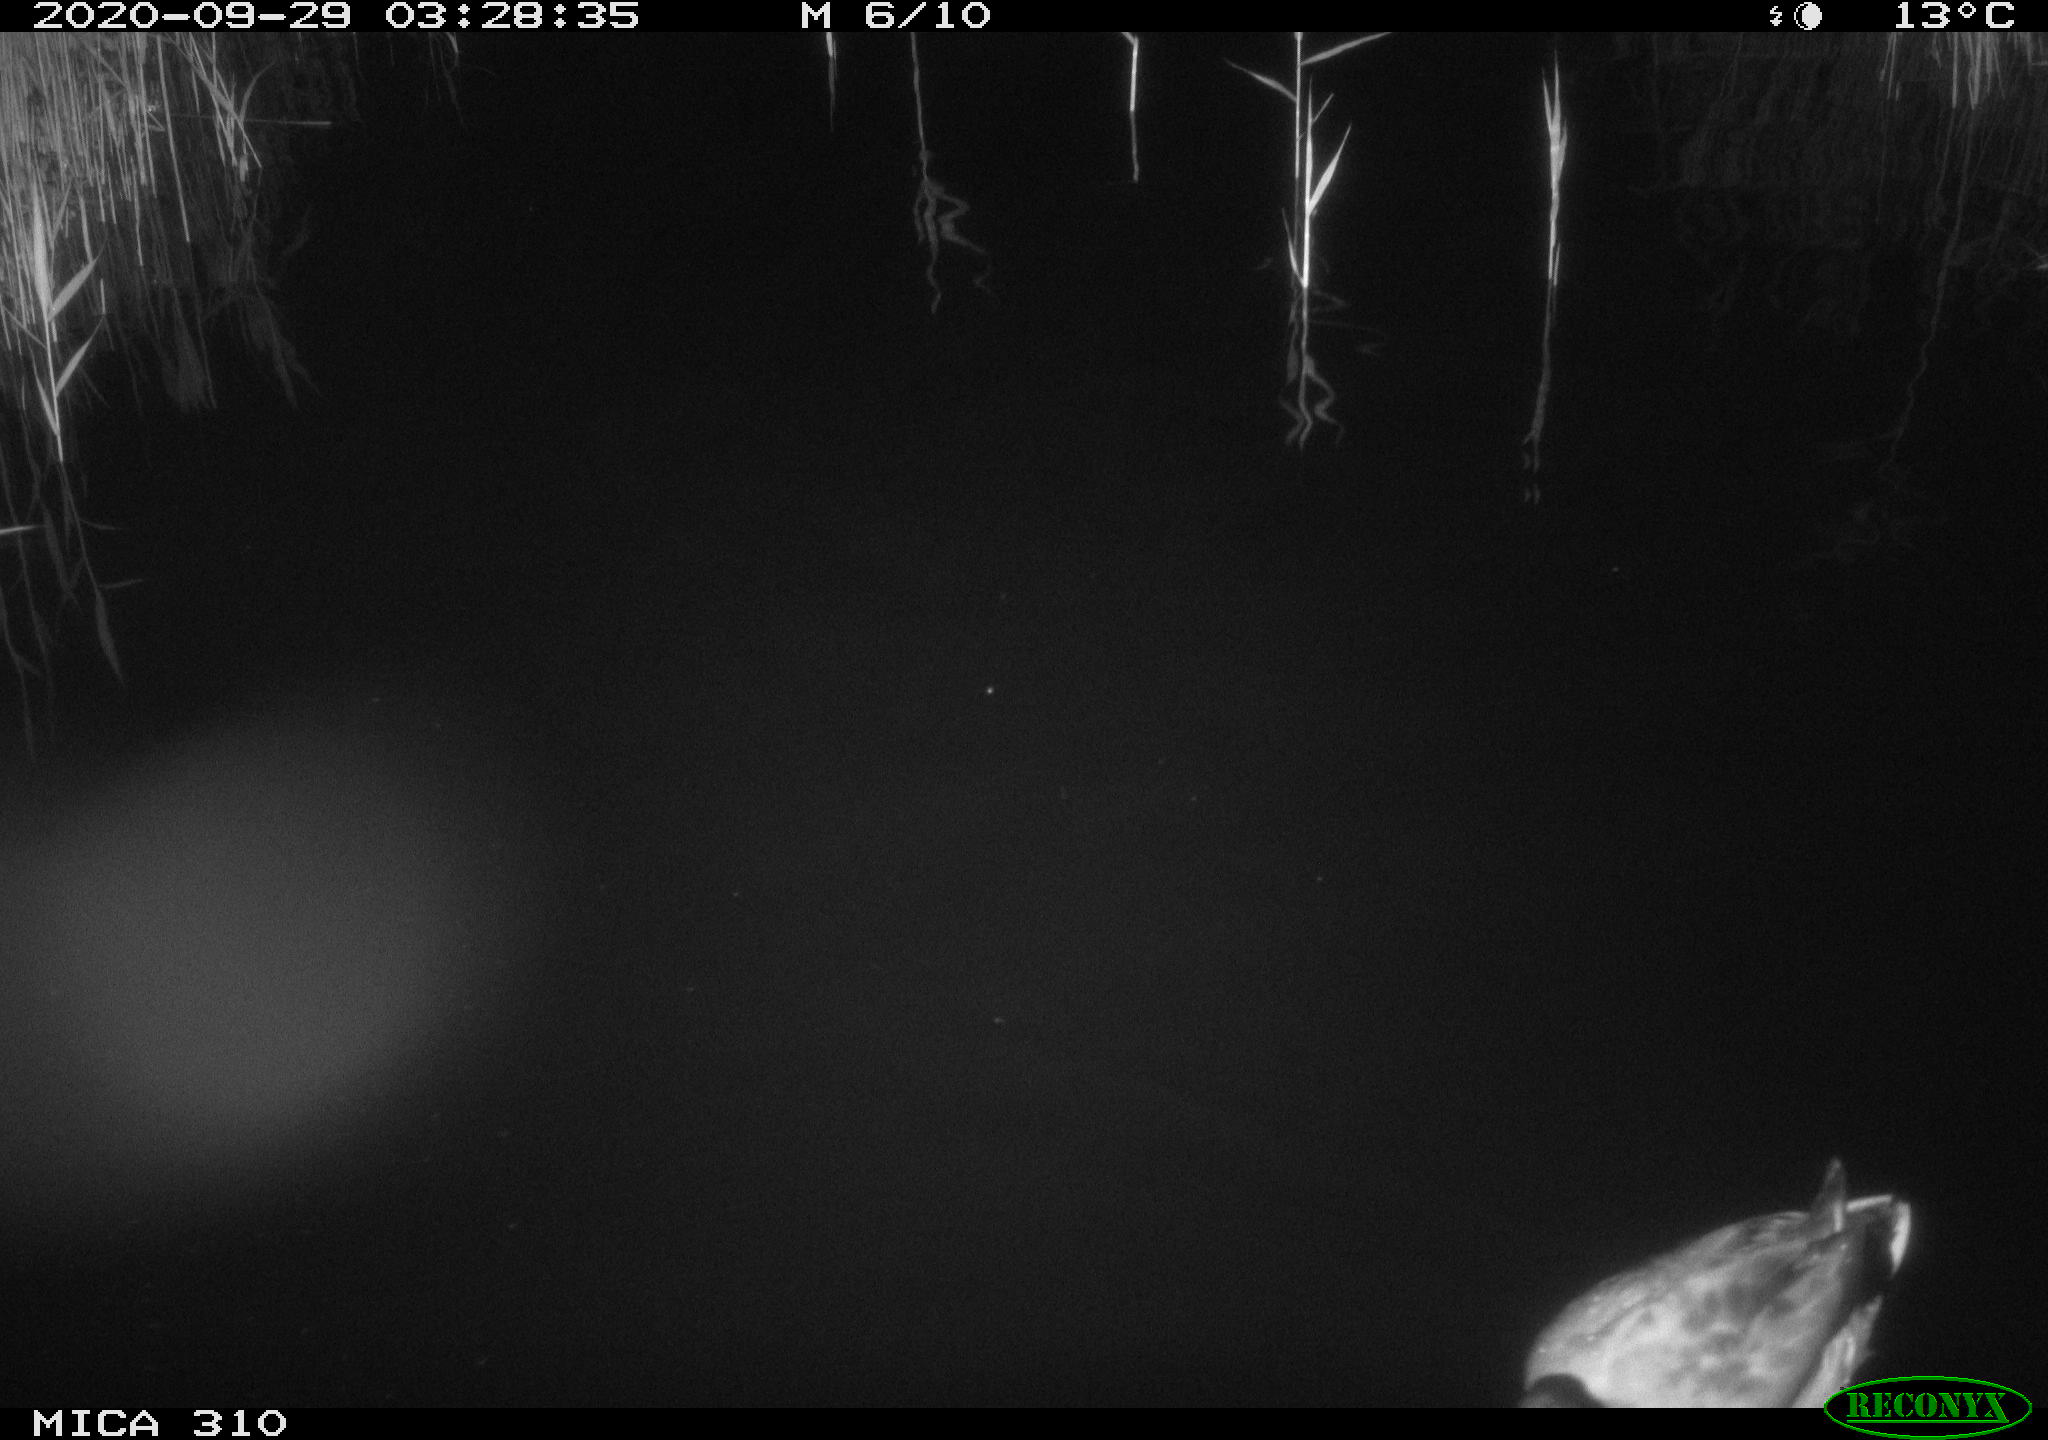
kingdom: Animalia
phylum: Chordata
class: Aves
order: Anseriformes
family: Anatidae
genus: Anas
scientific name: Anas platyrhynchos
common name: Mallard
